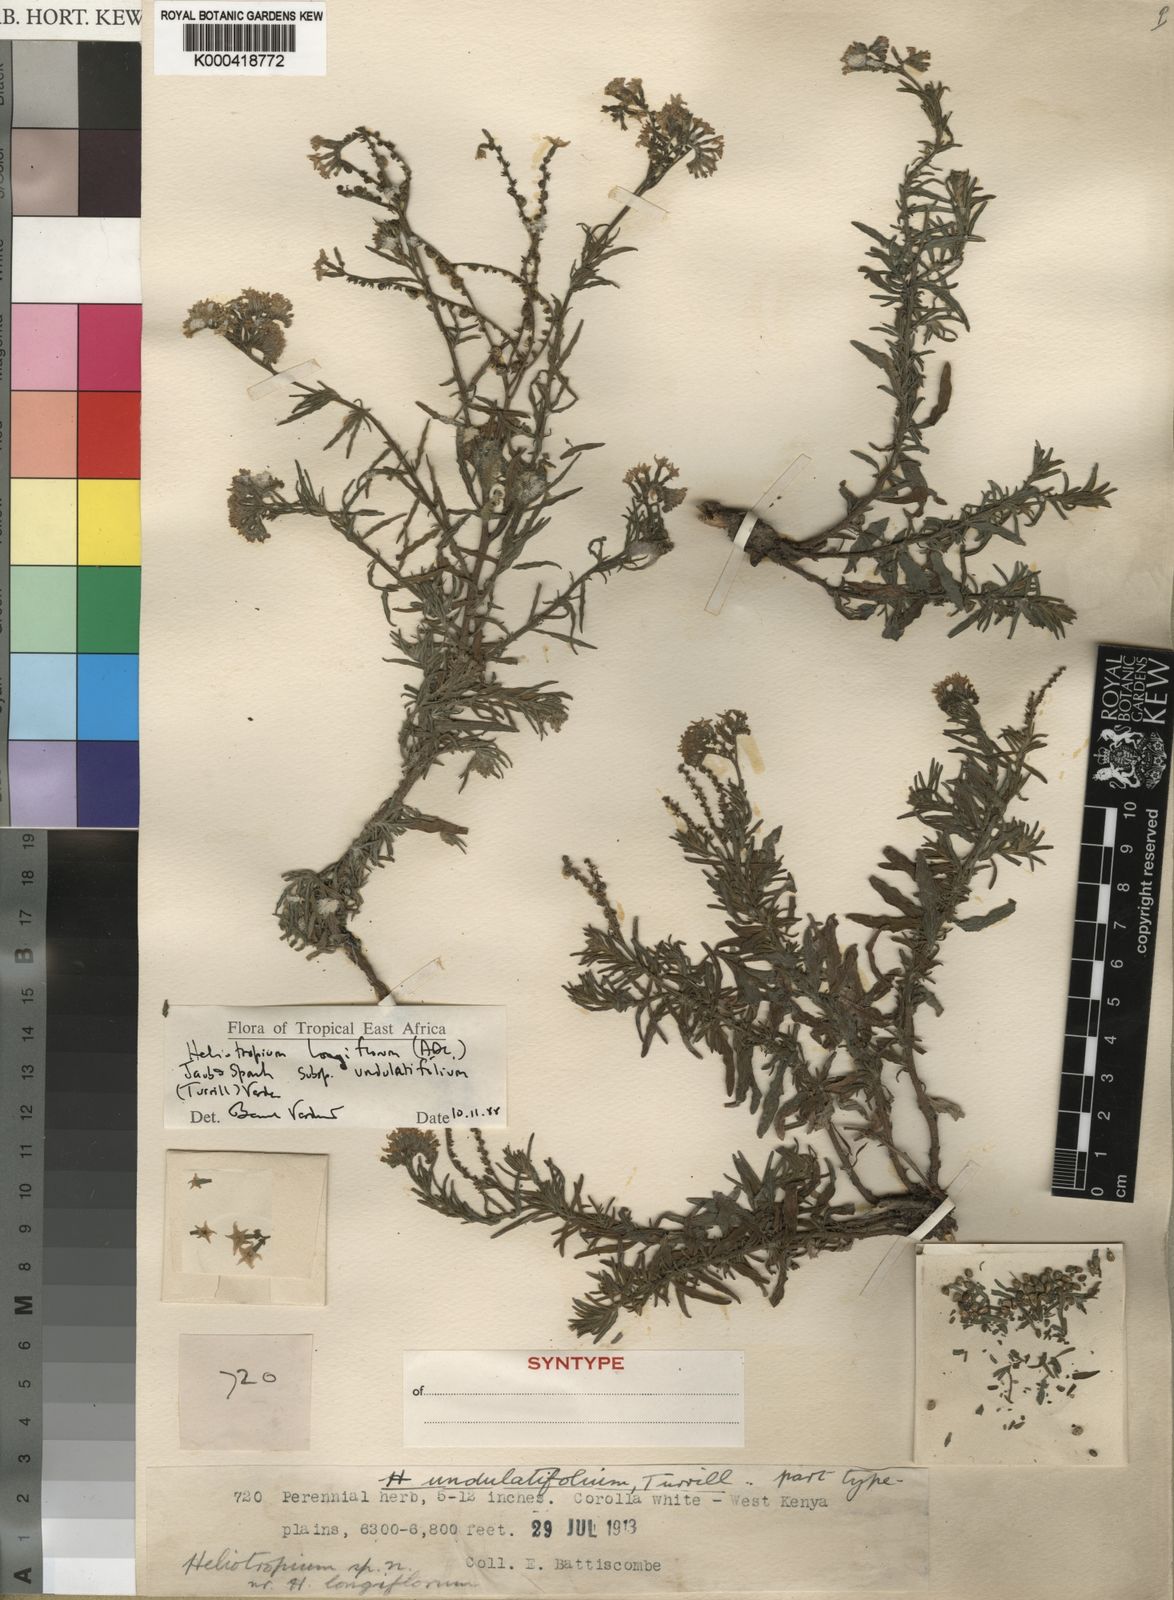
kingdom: Plantae
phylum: Tracheophyta
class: Magnoliopsida
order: Boraginales
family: Heliotropiaceae
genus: Heliotropium
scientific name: Heliotropium longiflorum
